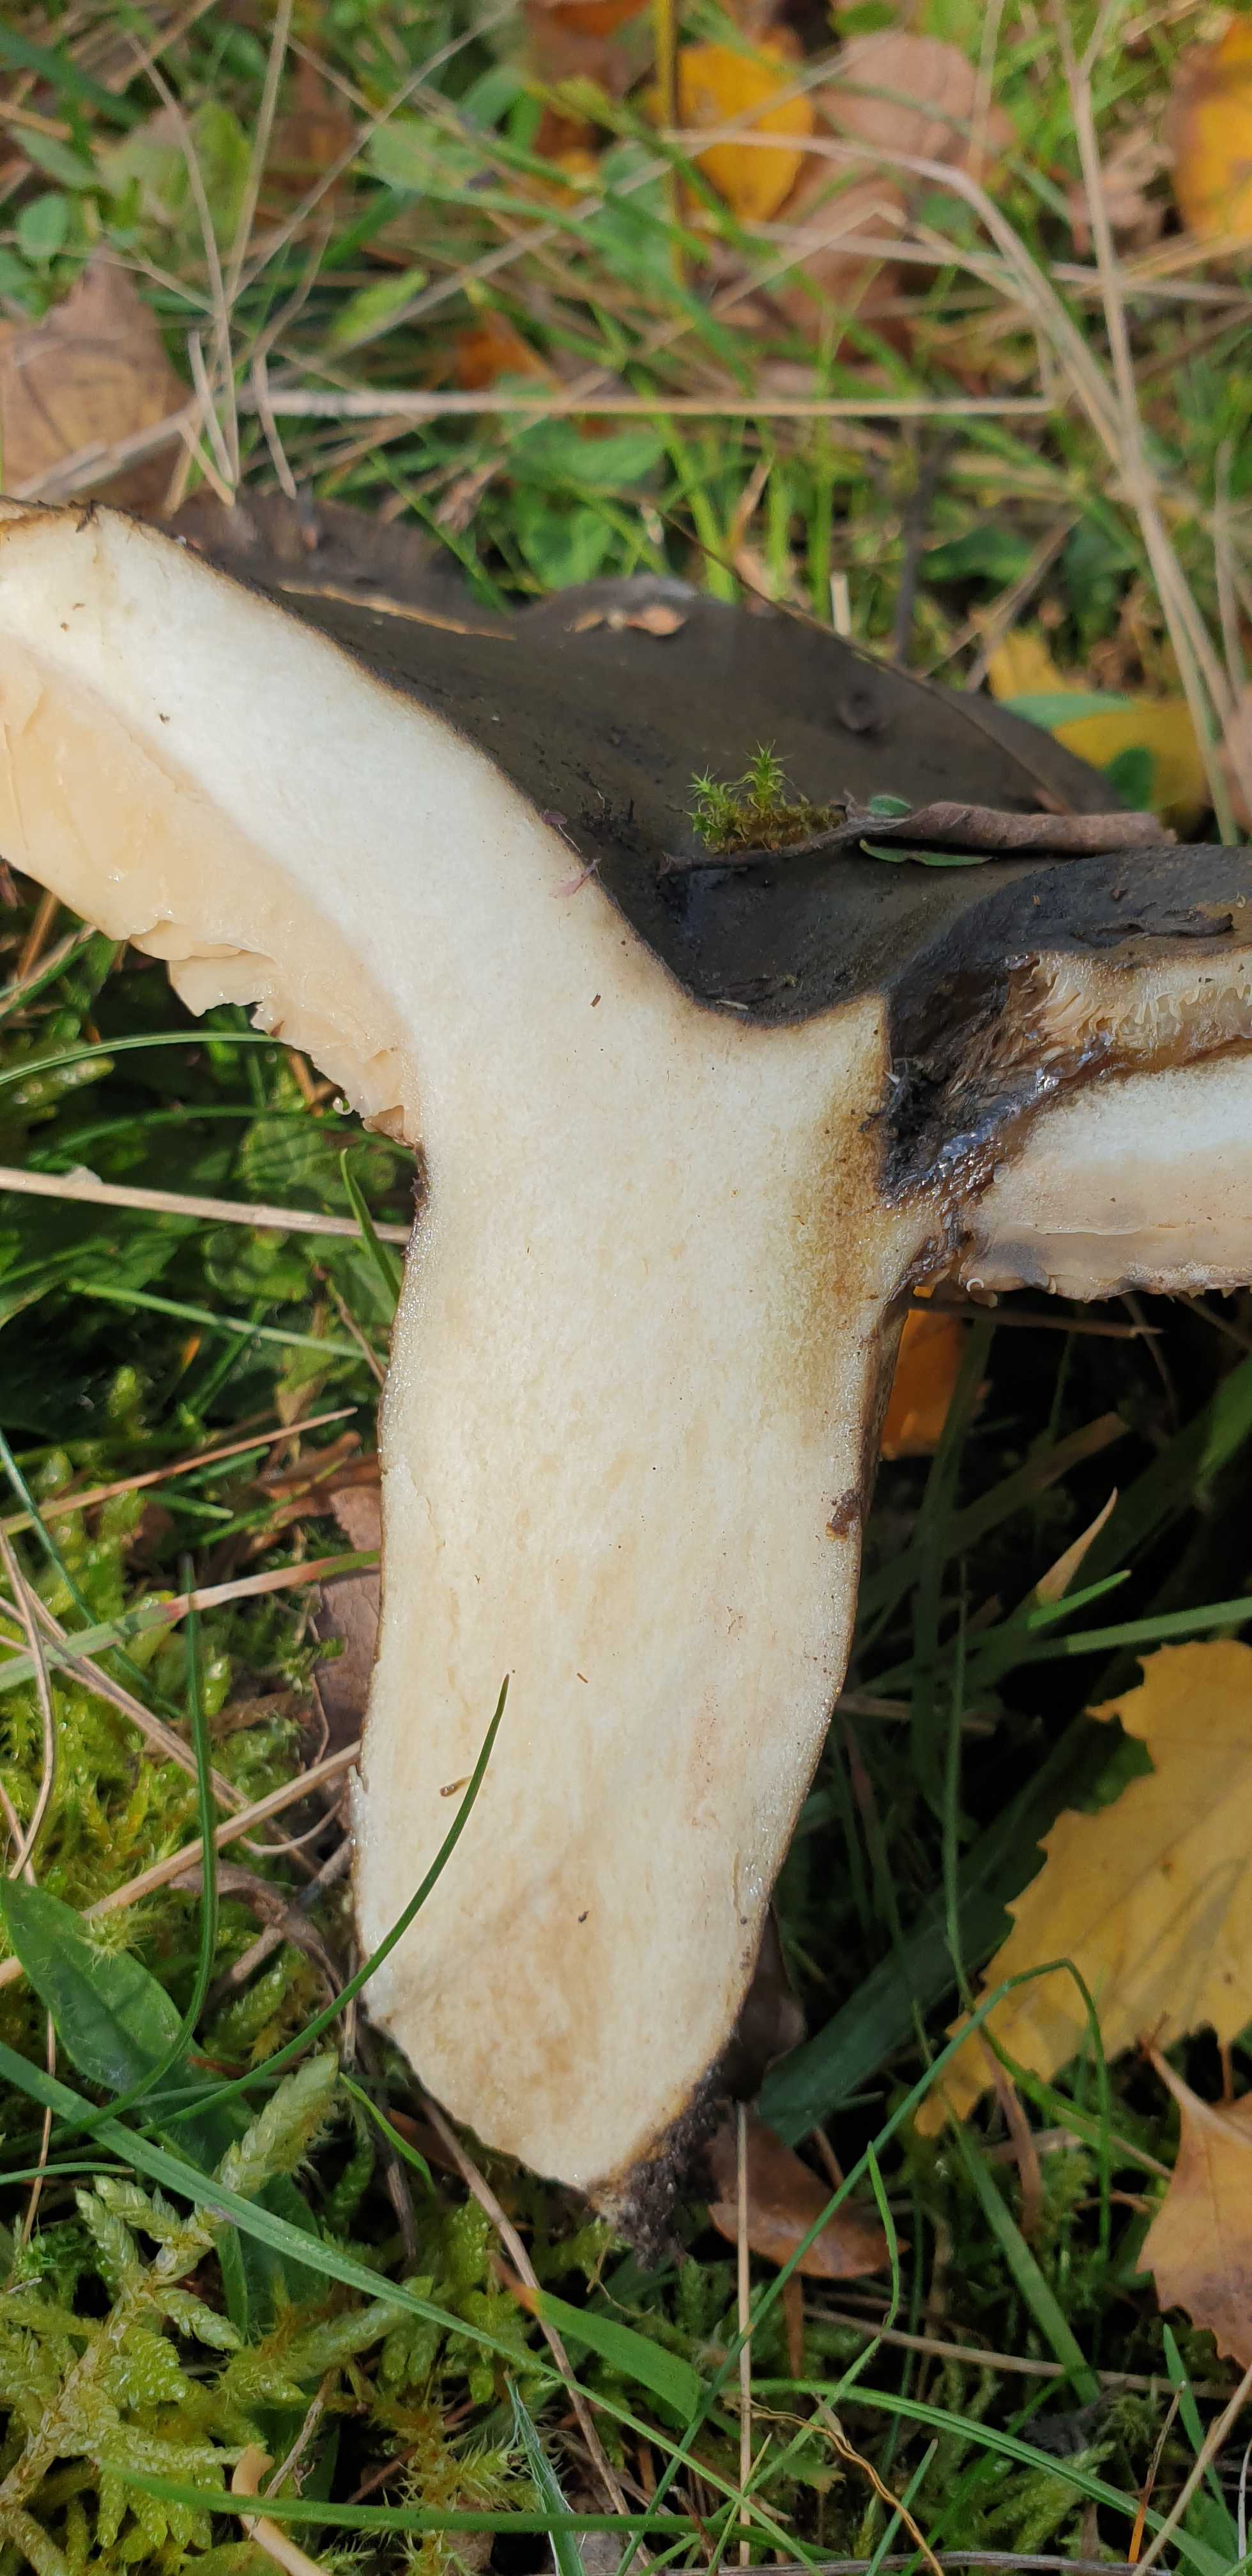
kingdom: Fungi
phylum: Basidiomycota
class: Agaricomycetes
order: Russulales
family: Russulaceae
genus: Lactarius
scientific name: Lactarius necator
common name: manddraber-mælkehat
